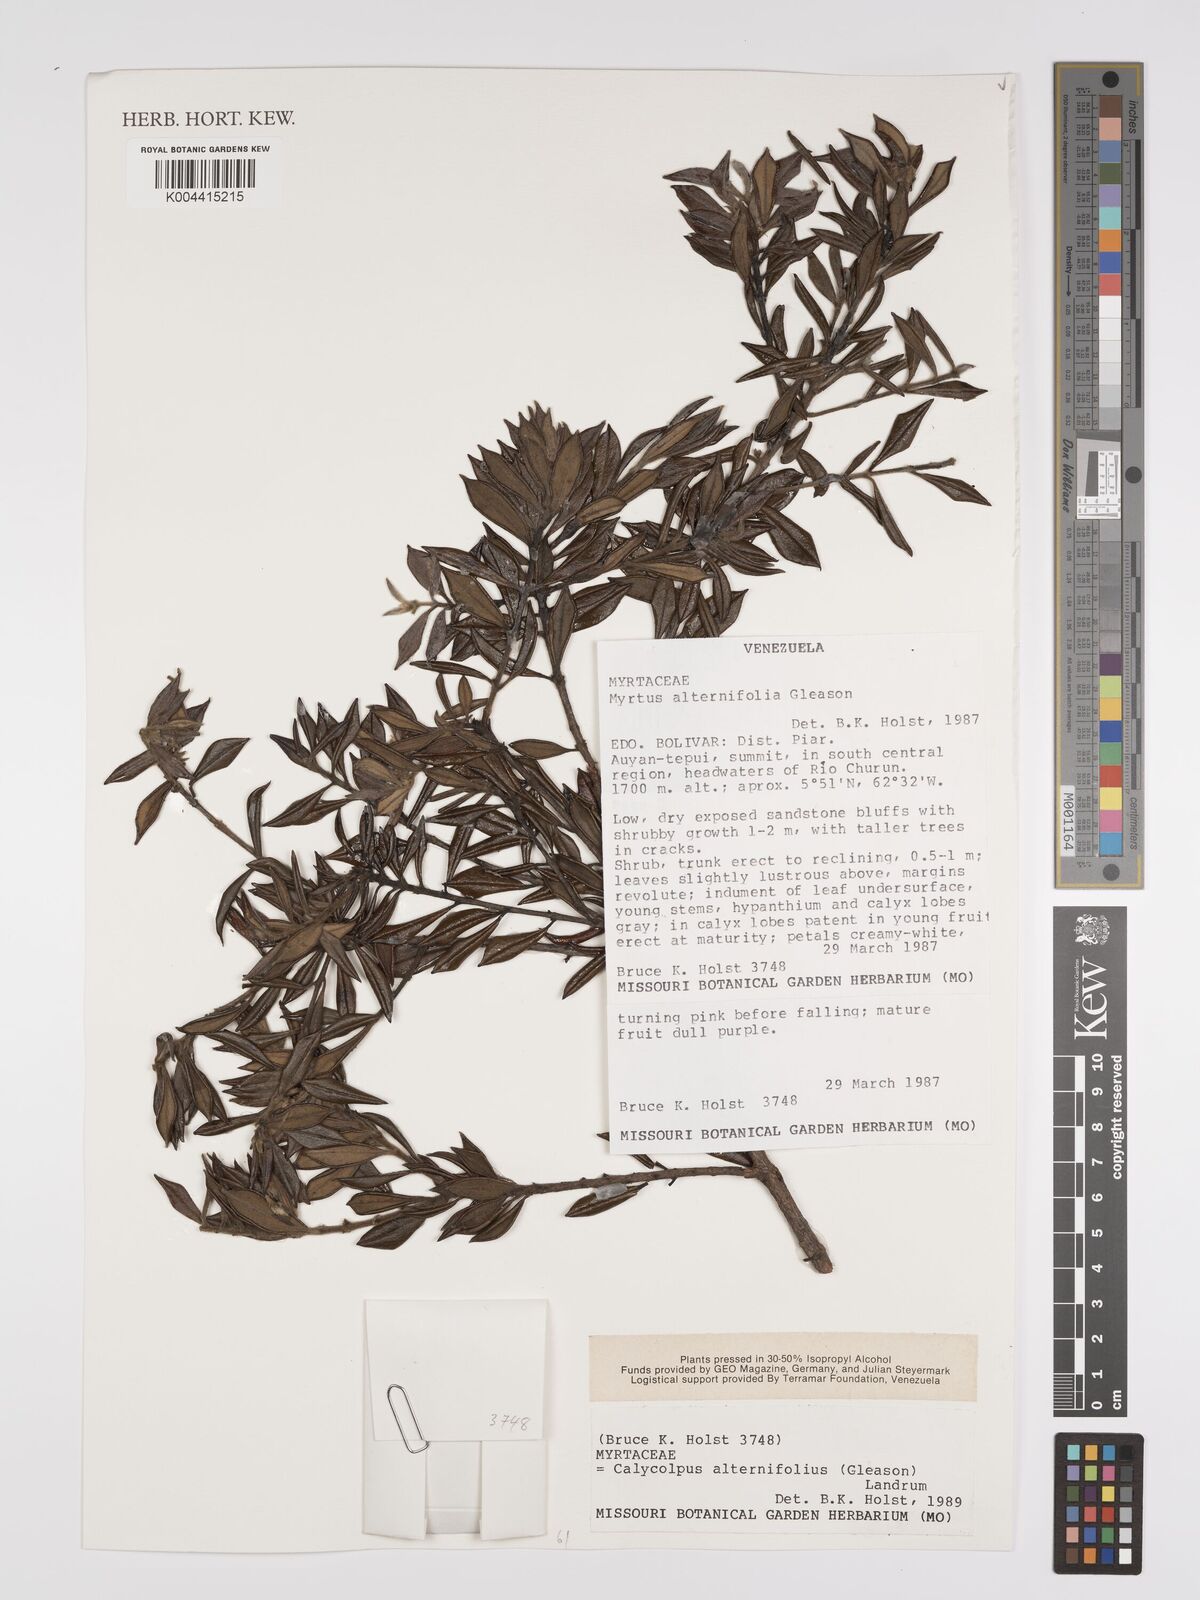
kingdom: Plantae
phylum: Tracheophyta
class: Magnoliopsida
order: Myrtales
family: Myrtaceae
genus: Calycolpus
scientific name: Calycolpus alternifolius
